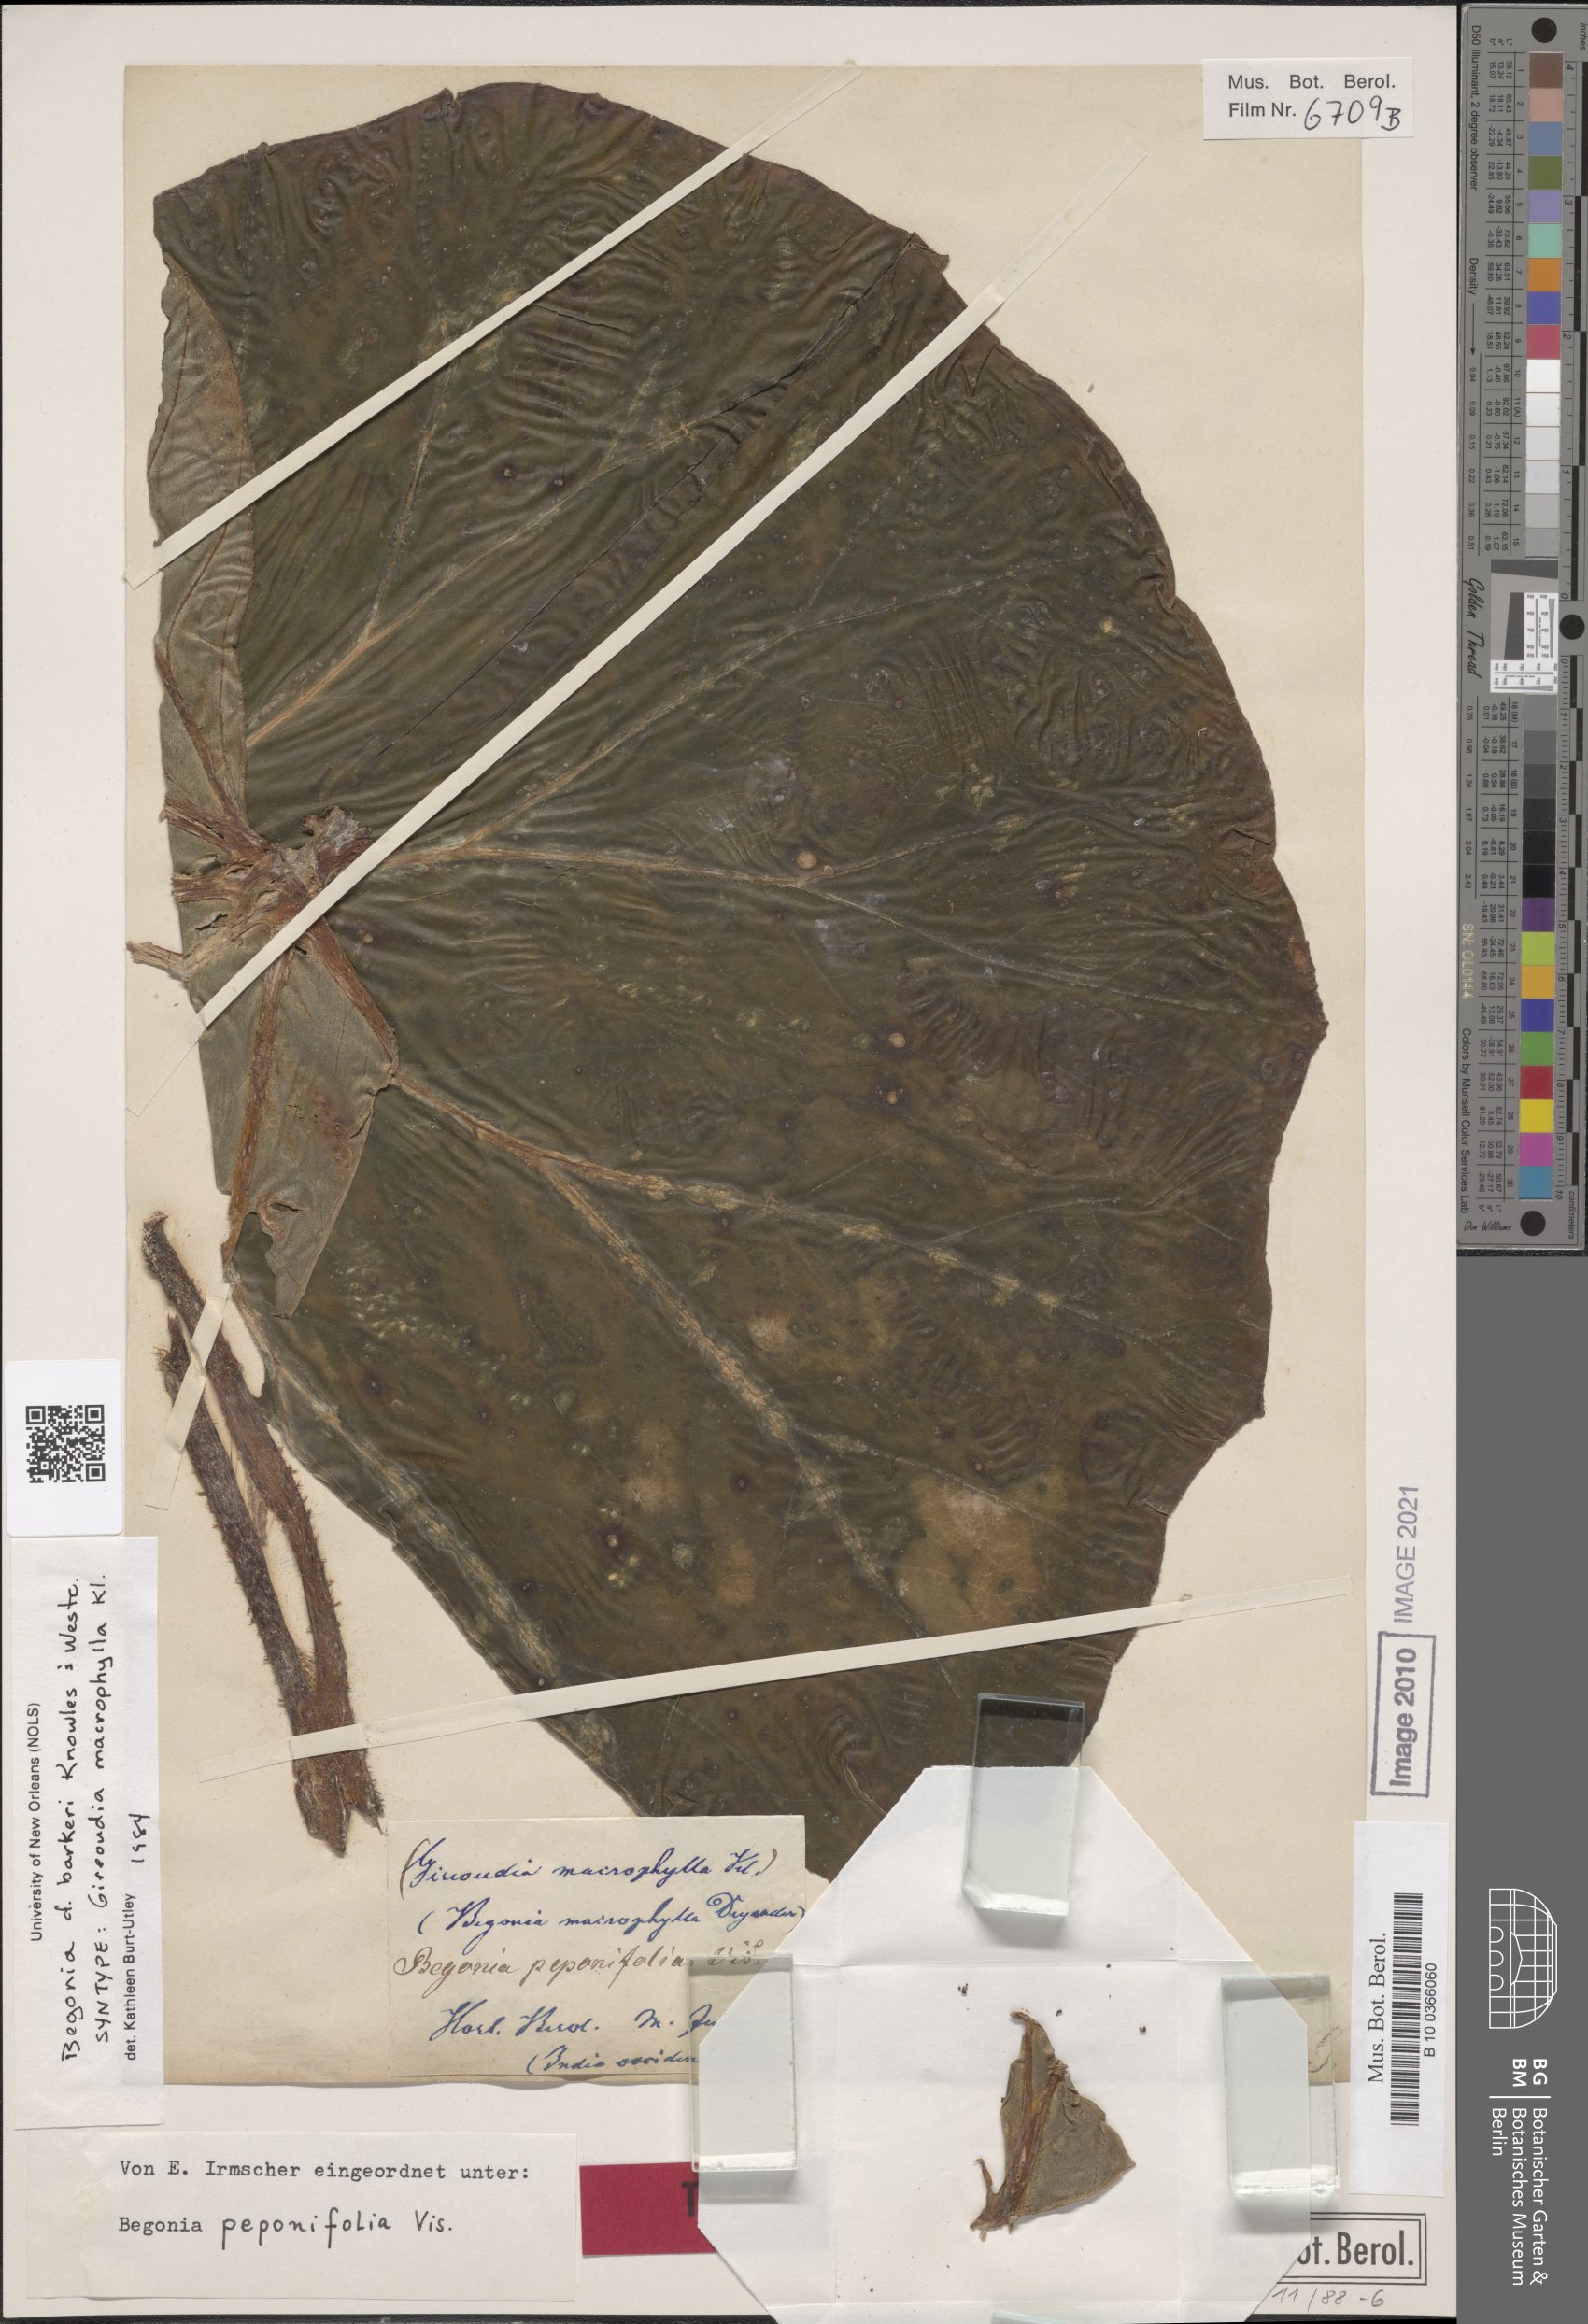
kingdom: Plantae
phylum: Tracheophyta
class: Magnoliopsida
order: Cucurbitales
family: Begoniaceae
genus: Begonia
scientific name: Begonia barkeri
